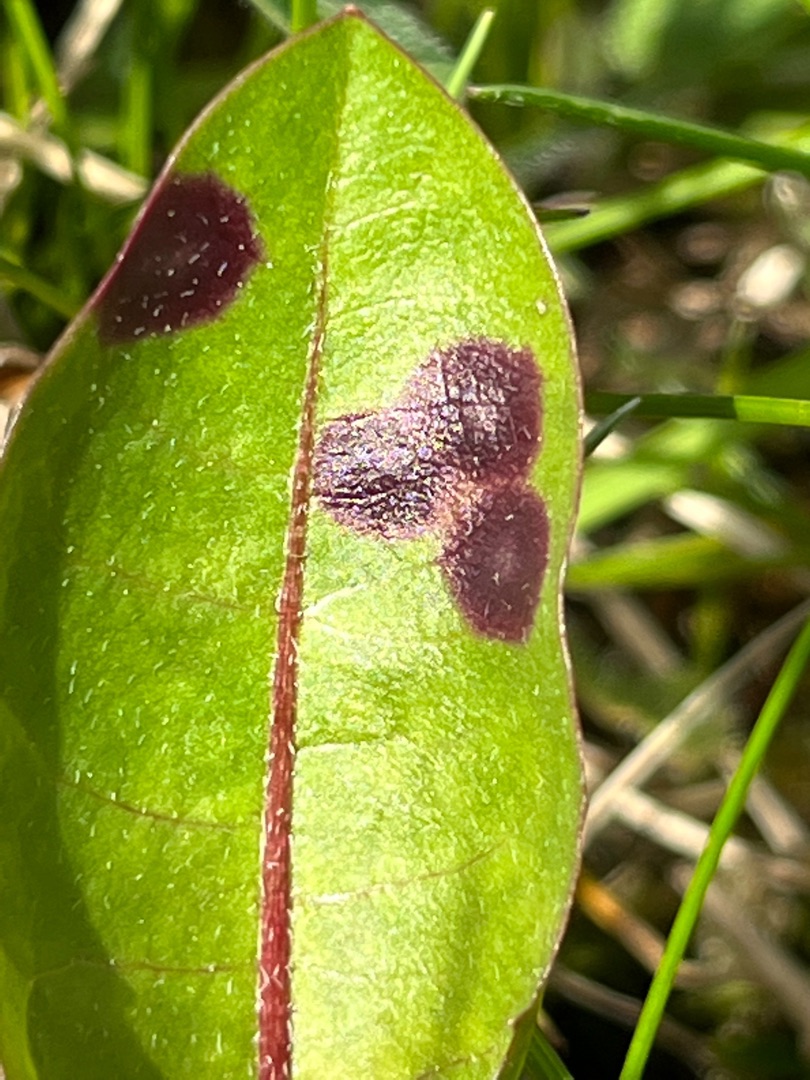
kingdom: Animalia
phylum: Arthropoda
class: Insecta
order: Diptera
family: Cecidomyiidae
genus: Cystiphora
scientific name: Cystiphora taraxaci
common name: Mælkebøttegalmyg
